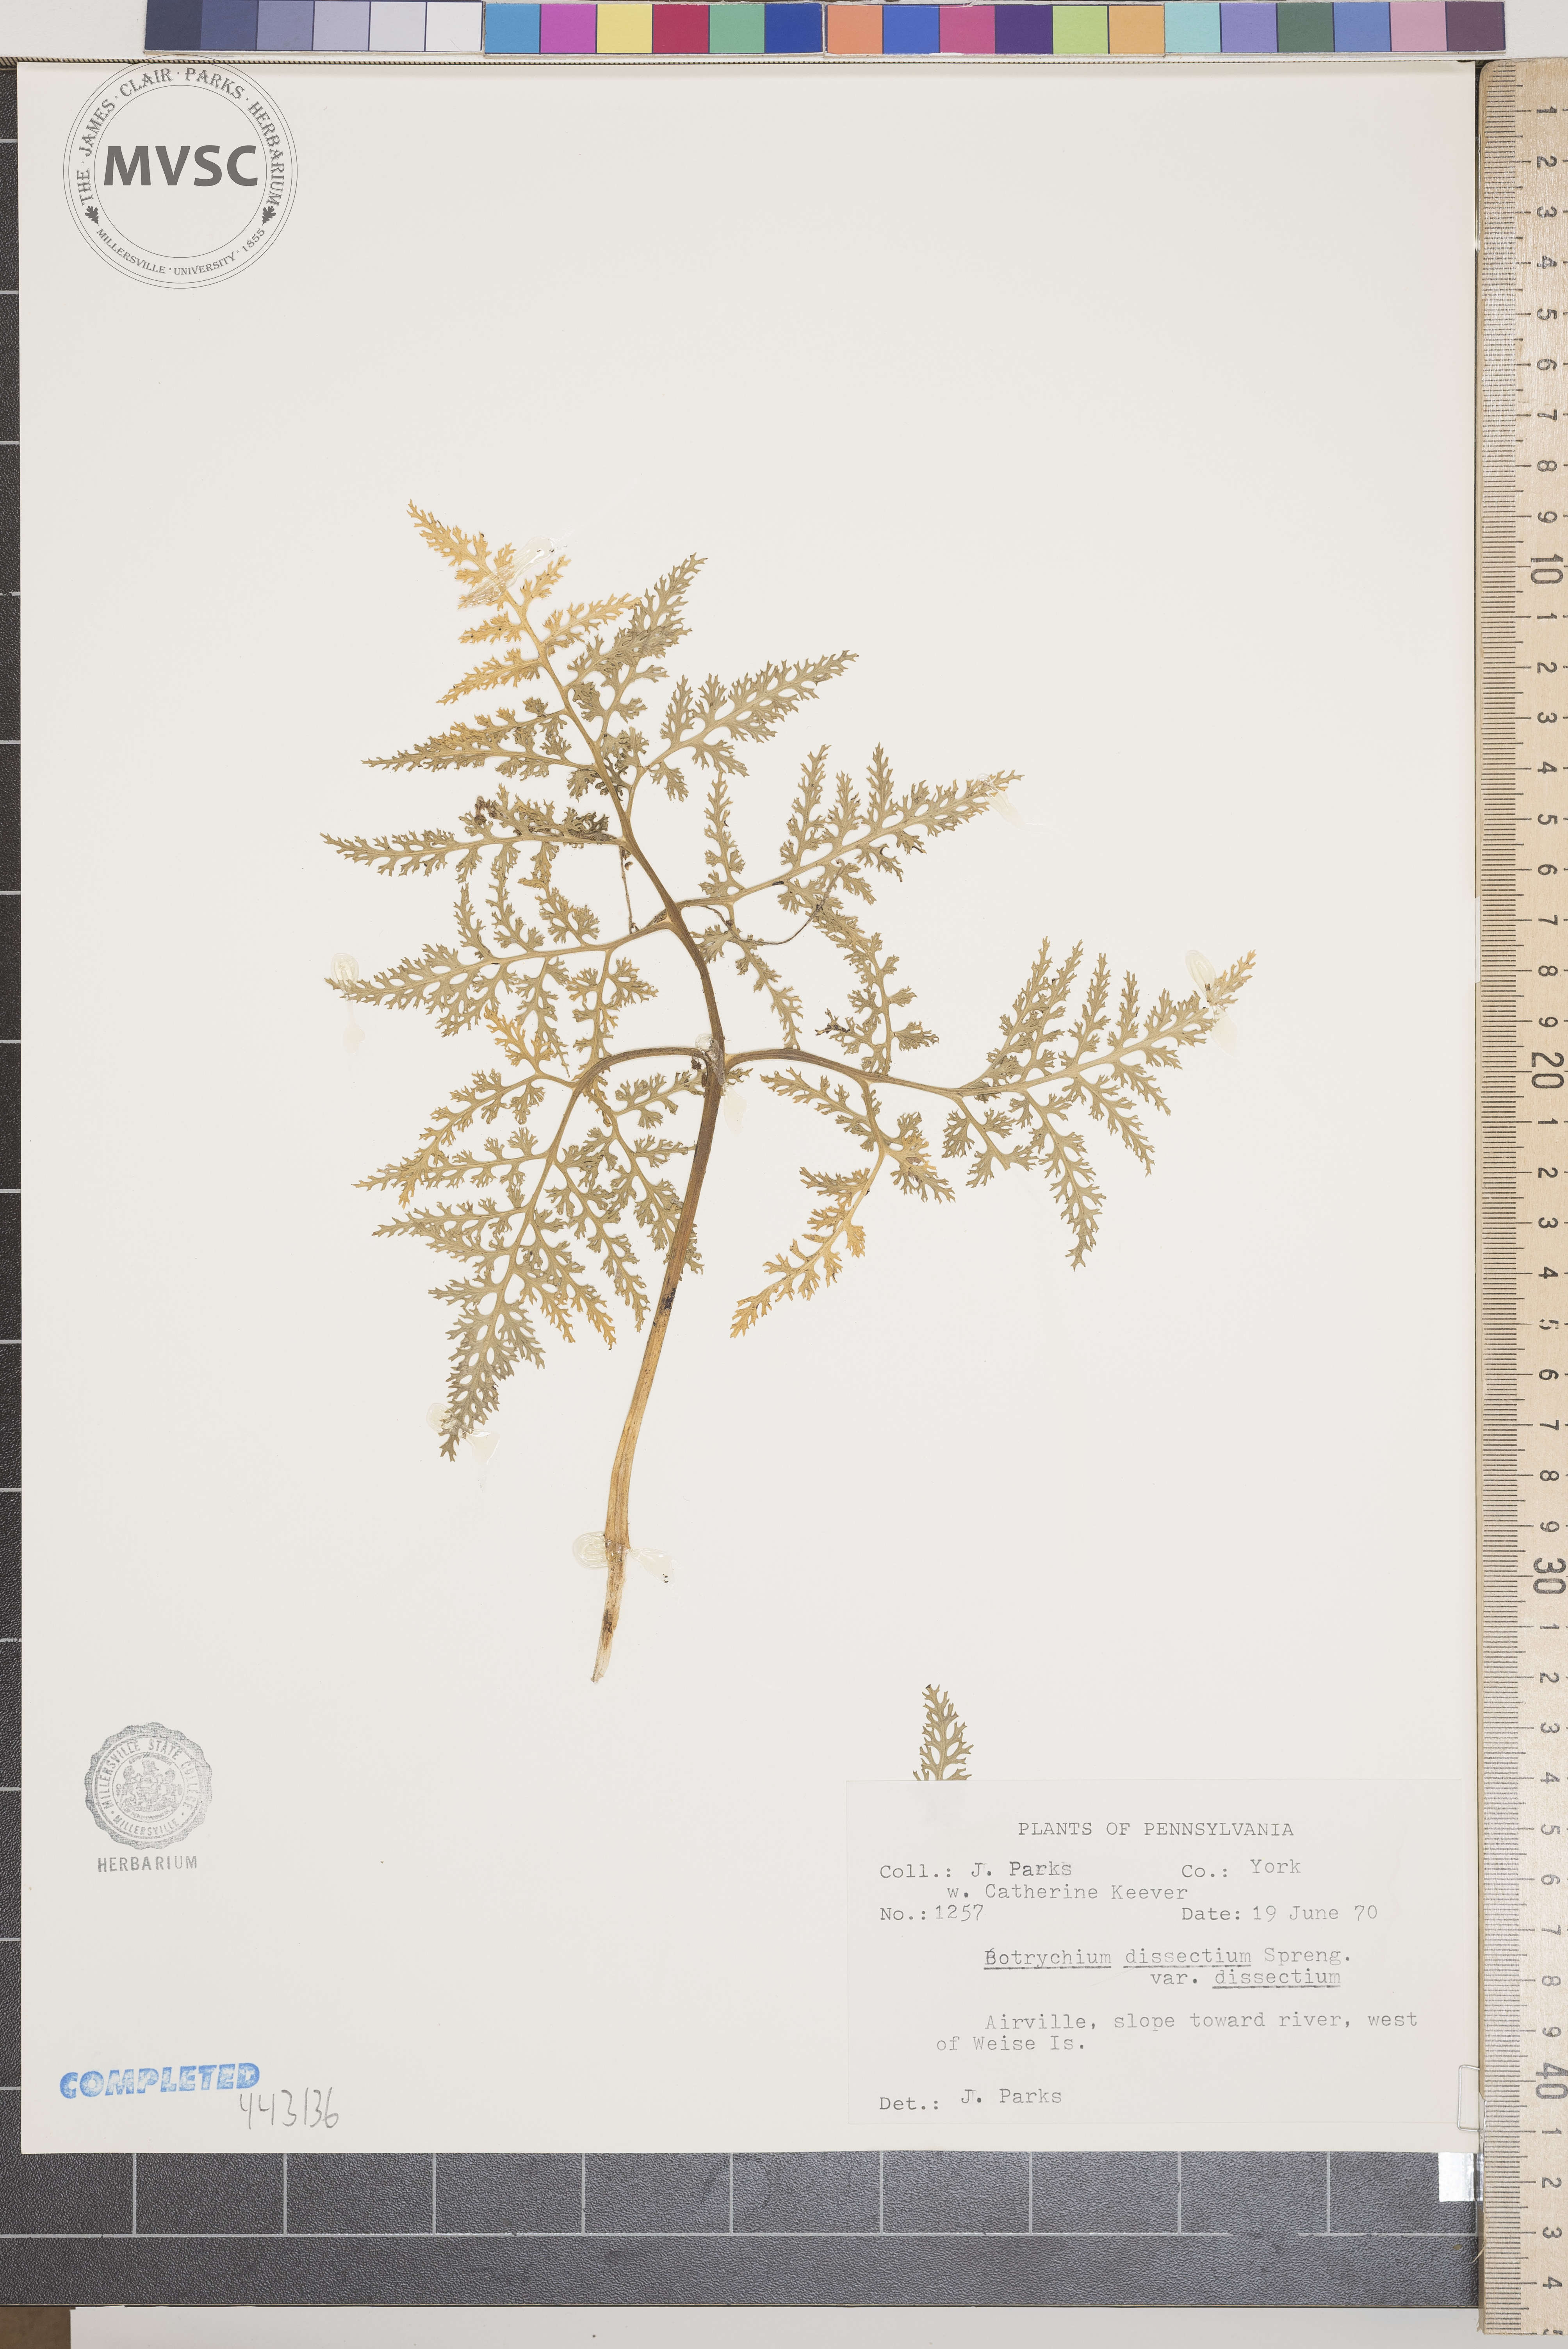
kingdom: Plantae
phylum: Tracheophyta
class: Polypodiopsida
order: Ophioglossales
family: Ophioglossaceae
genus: Sceptridium
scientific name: Sceptridium dissectum
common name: Cut-leaved grapefern
